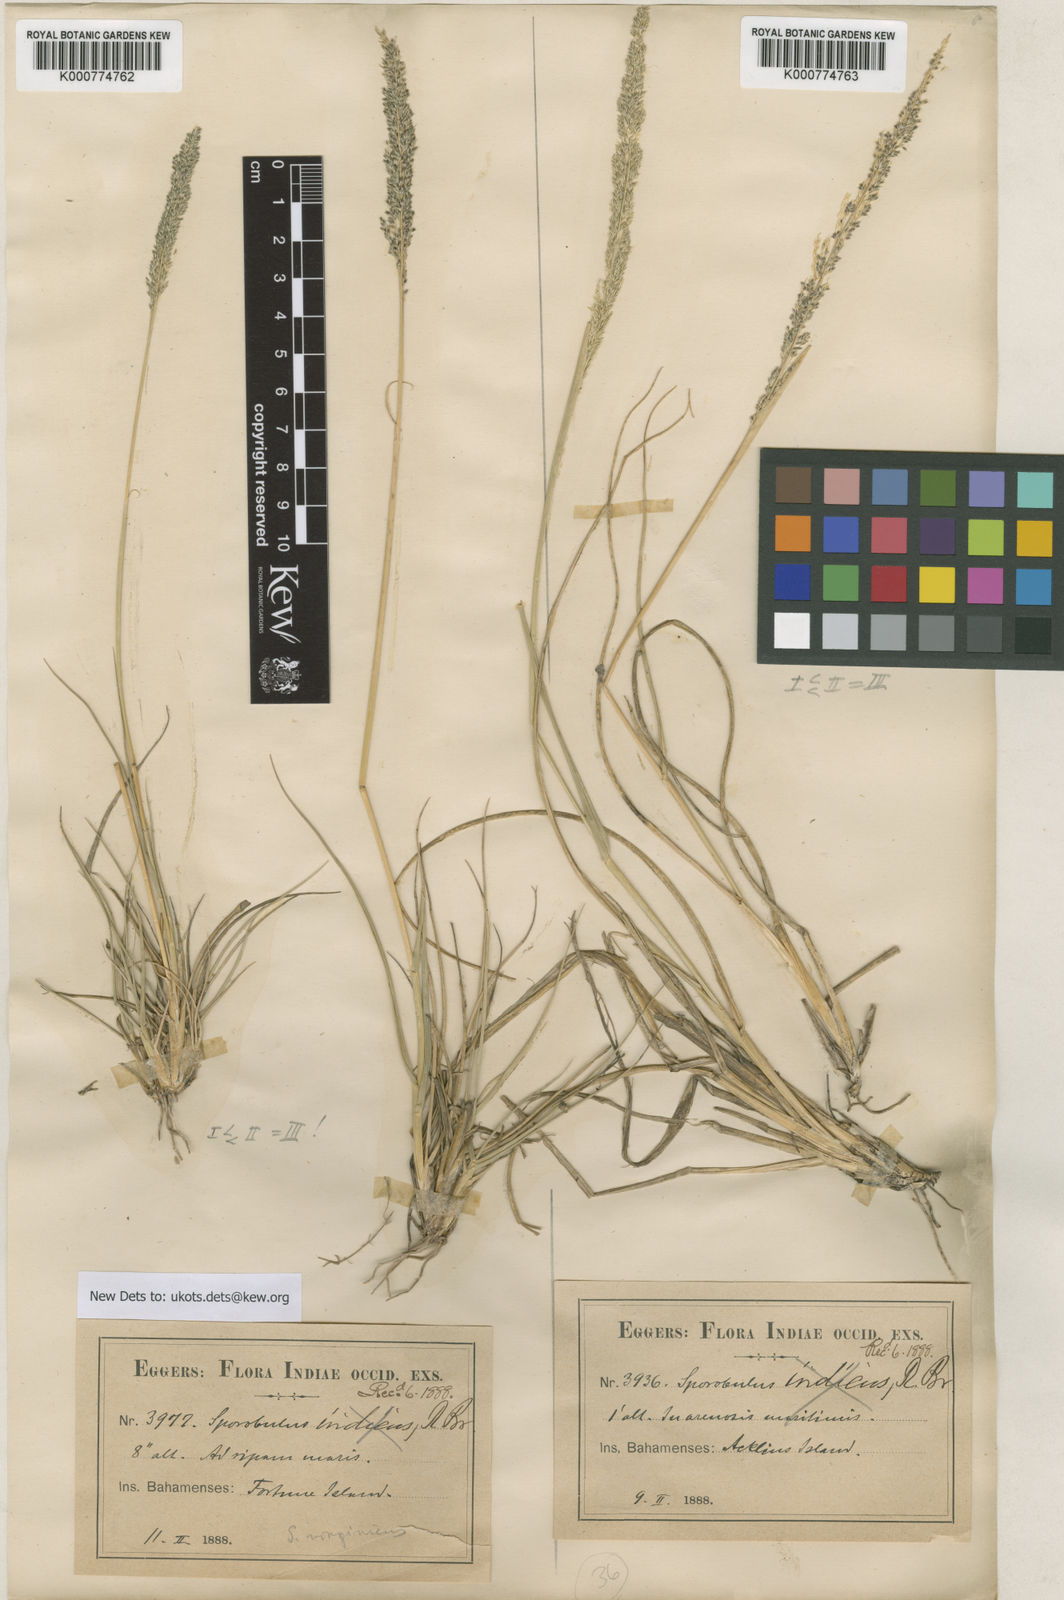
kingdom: Plantae
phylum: Tracheophyta
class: Liliopsida
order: Poales
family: Poaceae
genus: Sporobolus
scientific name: Sporobolus domingensis
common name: Coral dropseed
